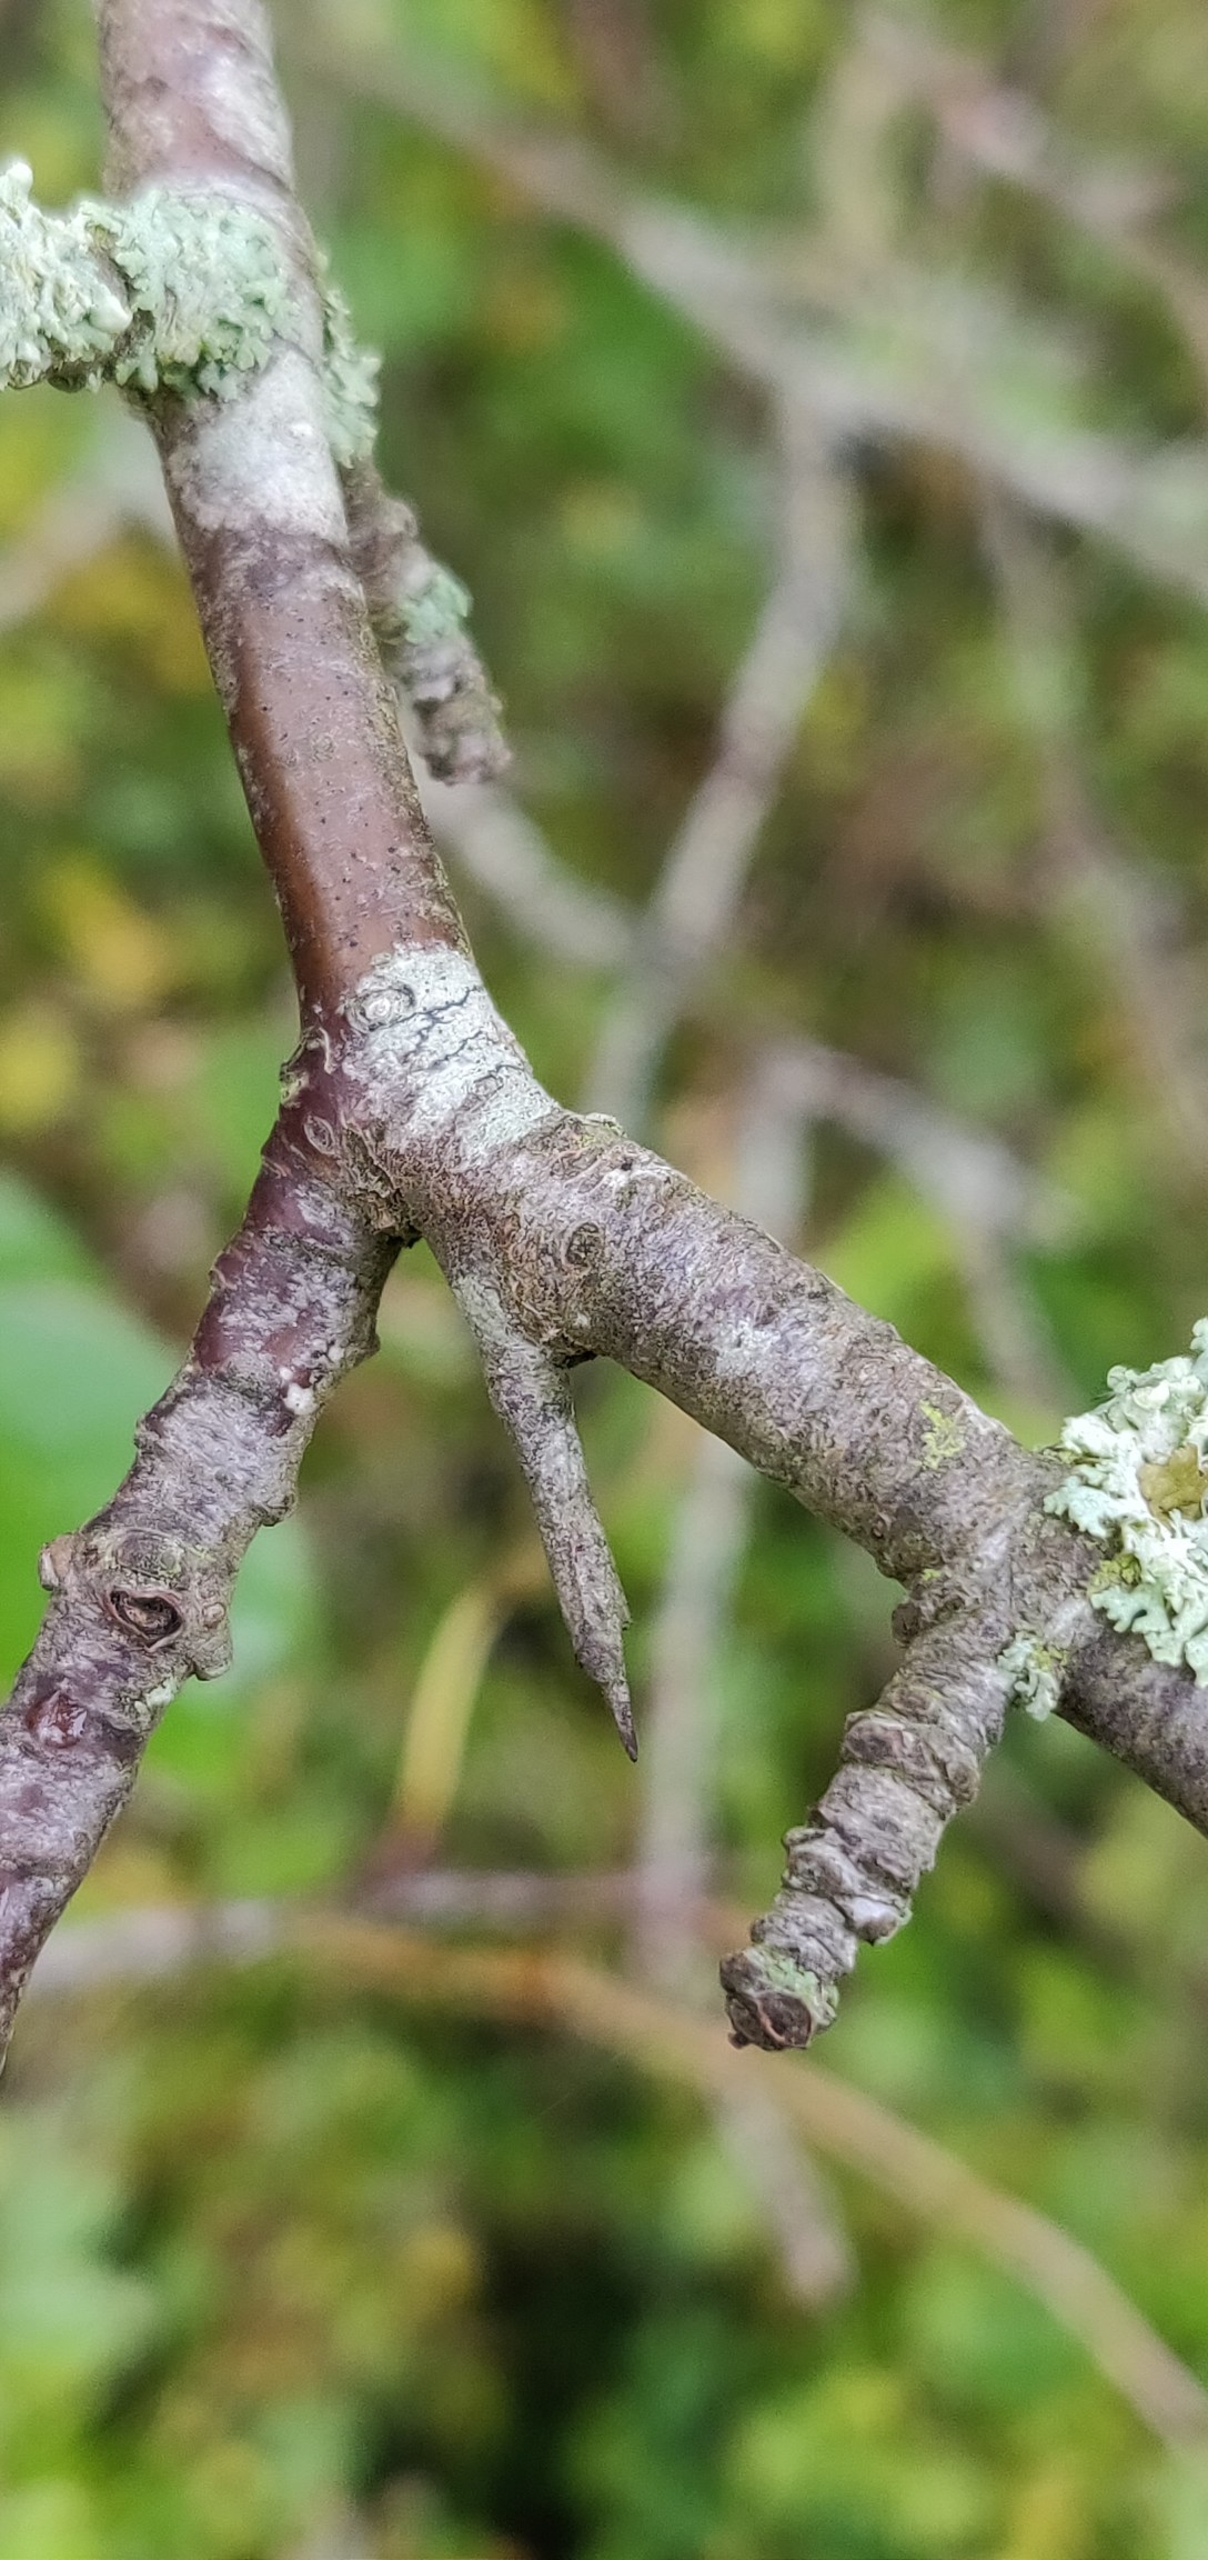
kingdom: Plantae
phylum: Tracheophyta
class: Magnoliopsida
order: Rosales
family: Rhamnaceae
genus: Rhamnus
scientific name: Rhamnus cathartica
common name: Vrietorn
